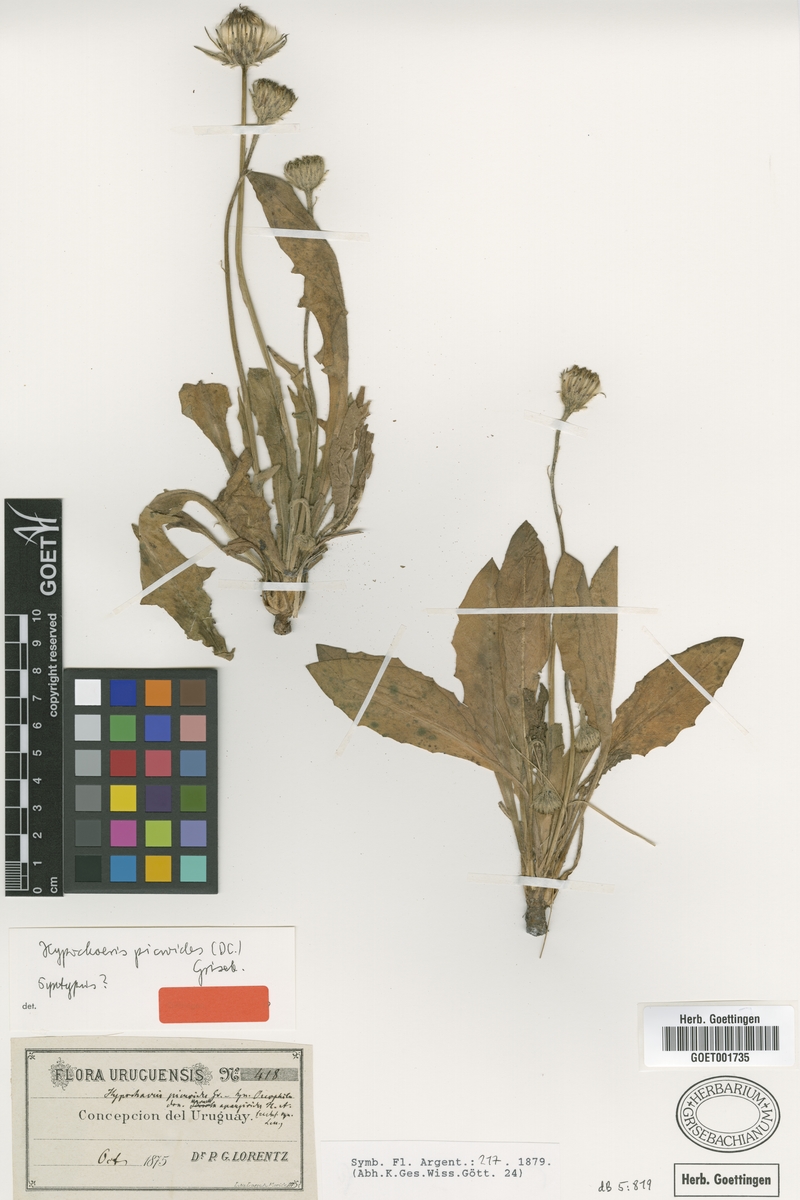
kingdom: Plantae
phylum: Tracheophyta
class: Magnoliopsida
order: Asterales
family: Asteraceae
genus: Hypochaeris
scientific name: Hypochaeris arachnoides
